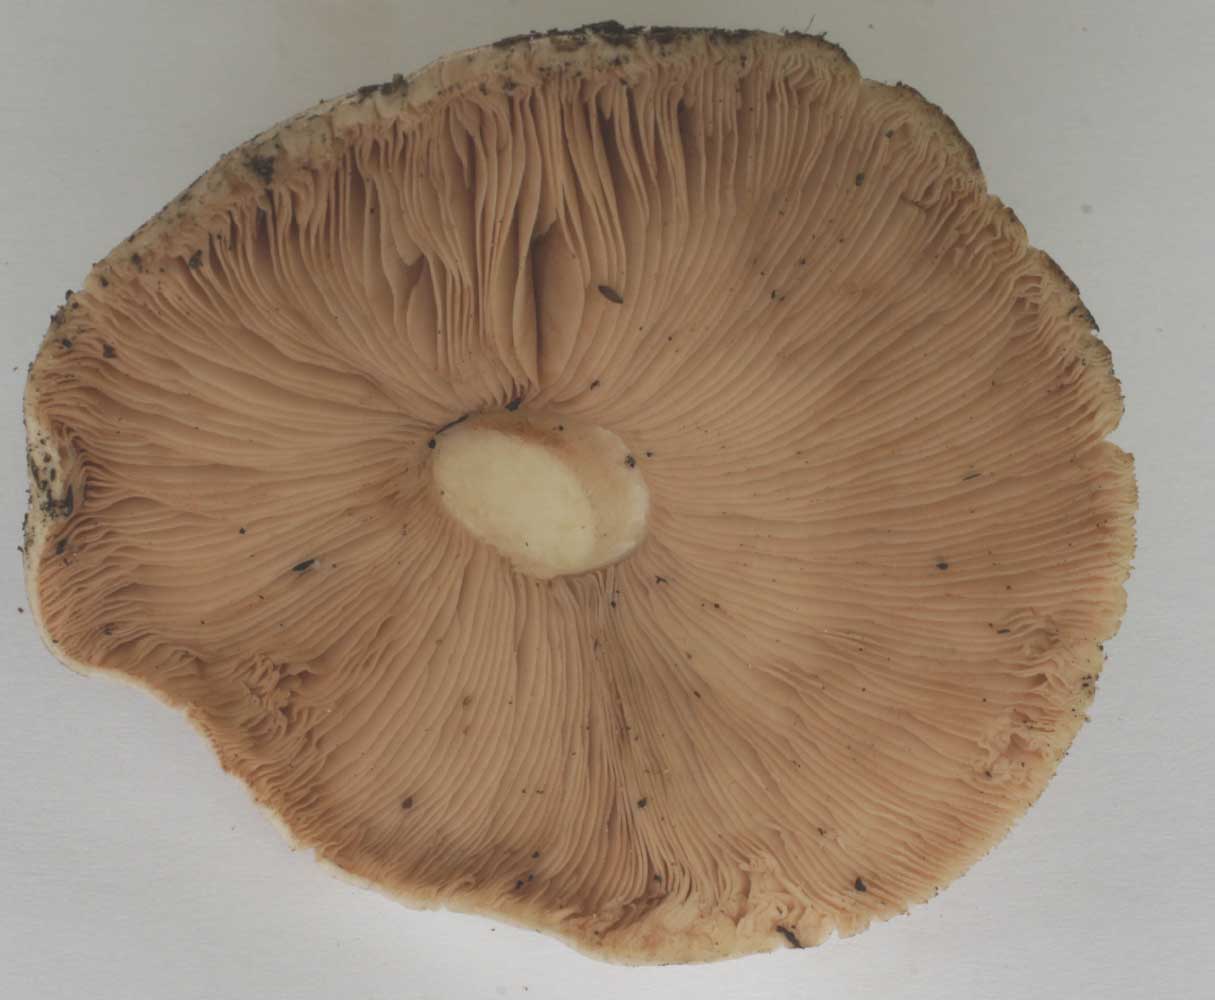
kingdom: Fungi
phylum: Basidiomycota
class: Agaricomycetes
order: Agaricales
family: Pluteaceae
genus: Pluteus
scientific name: Pluteus cervinus
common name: sodfarvet skærmhat
